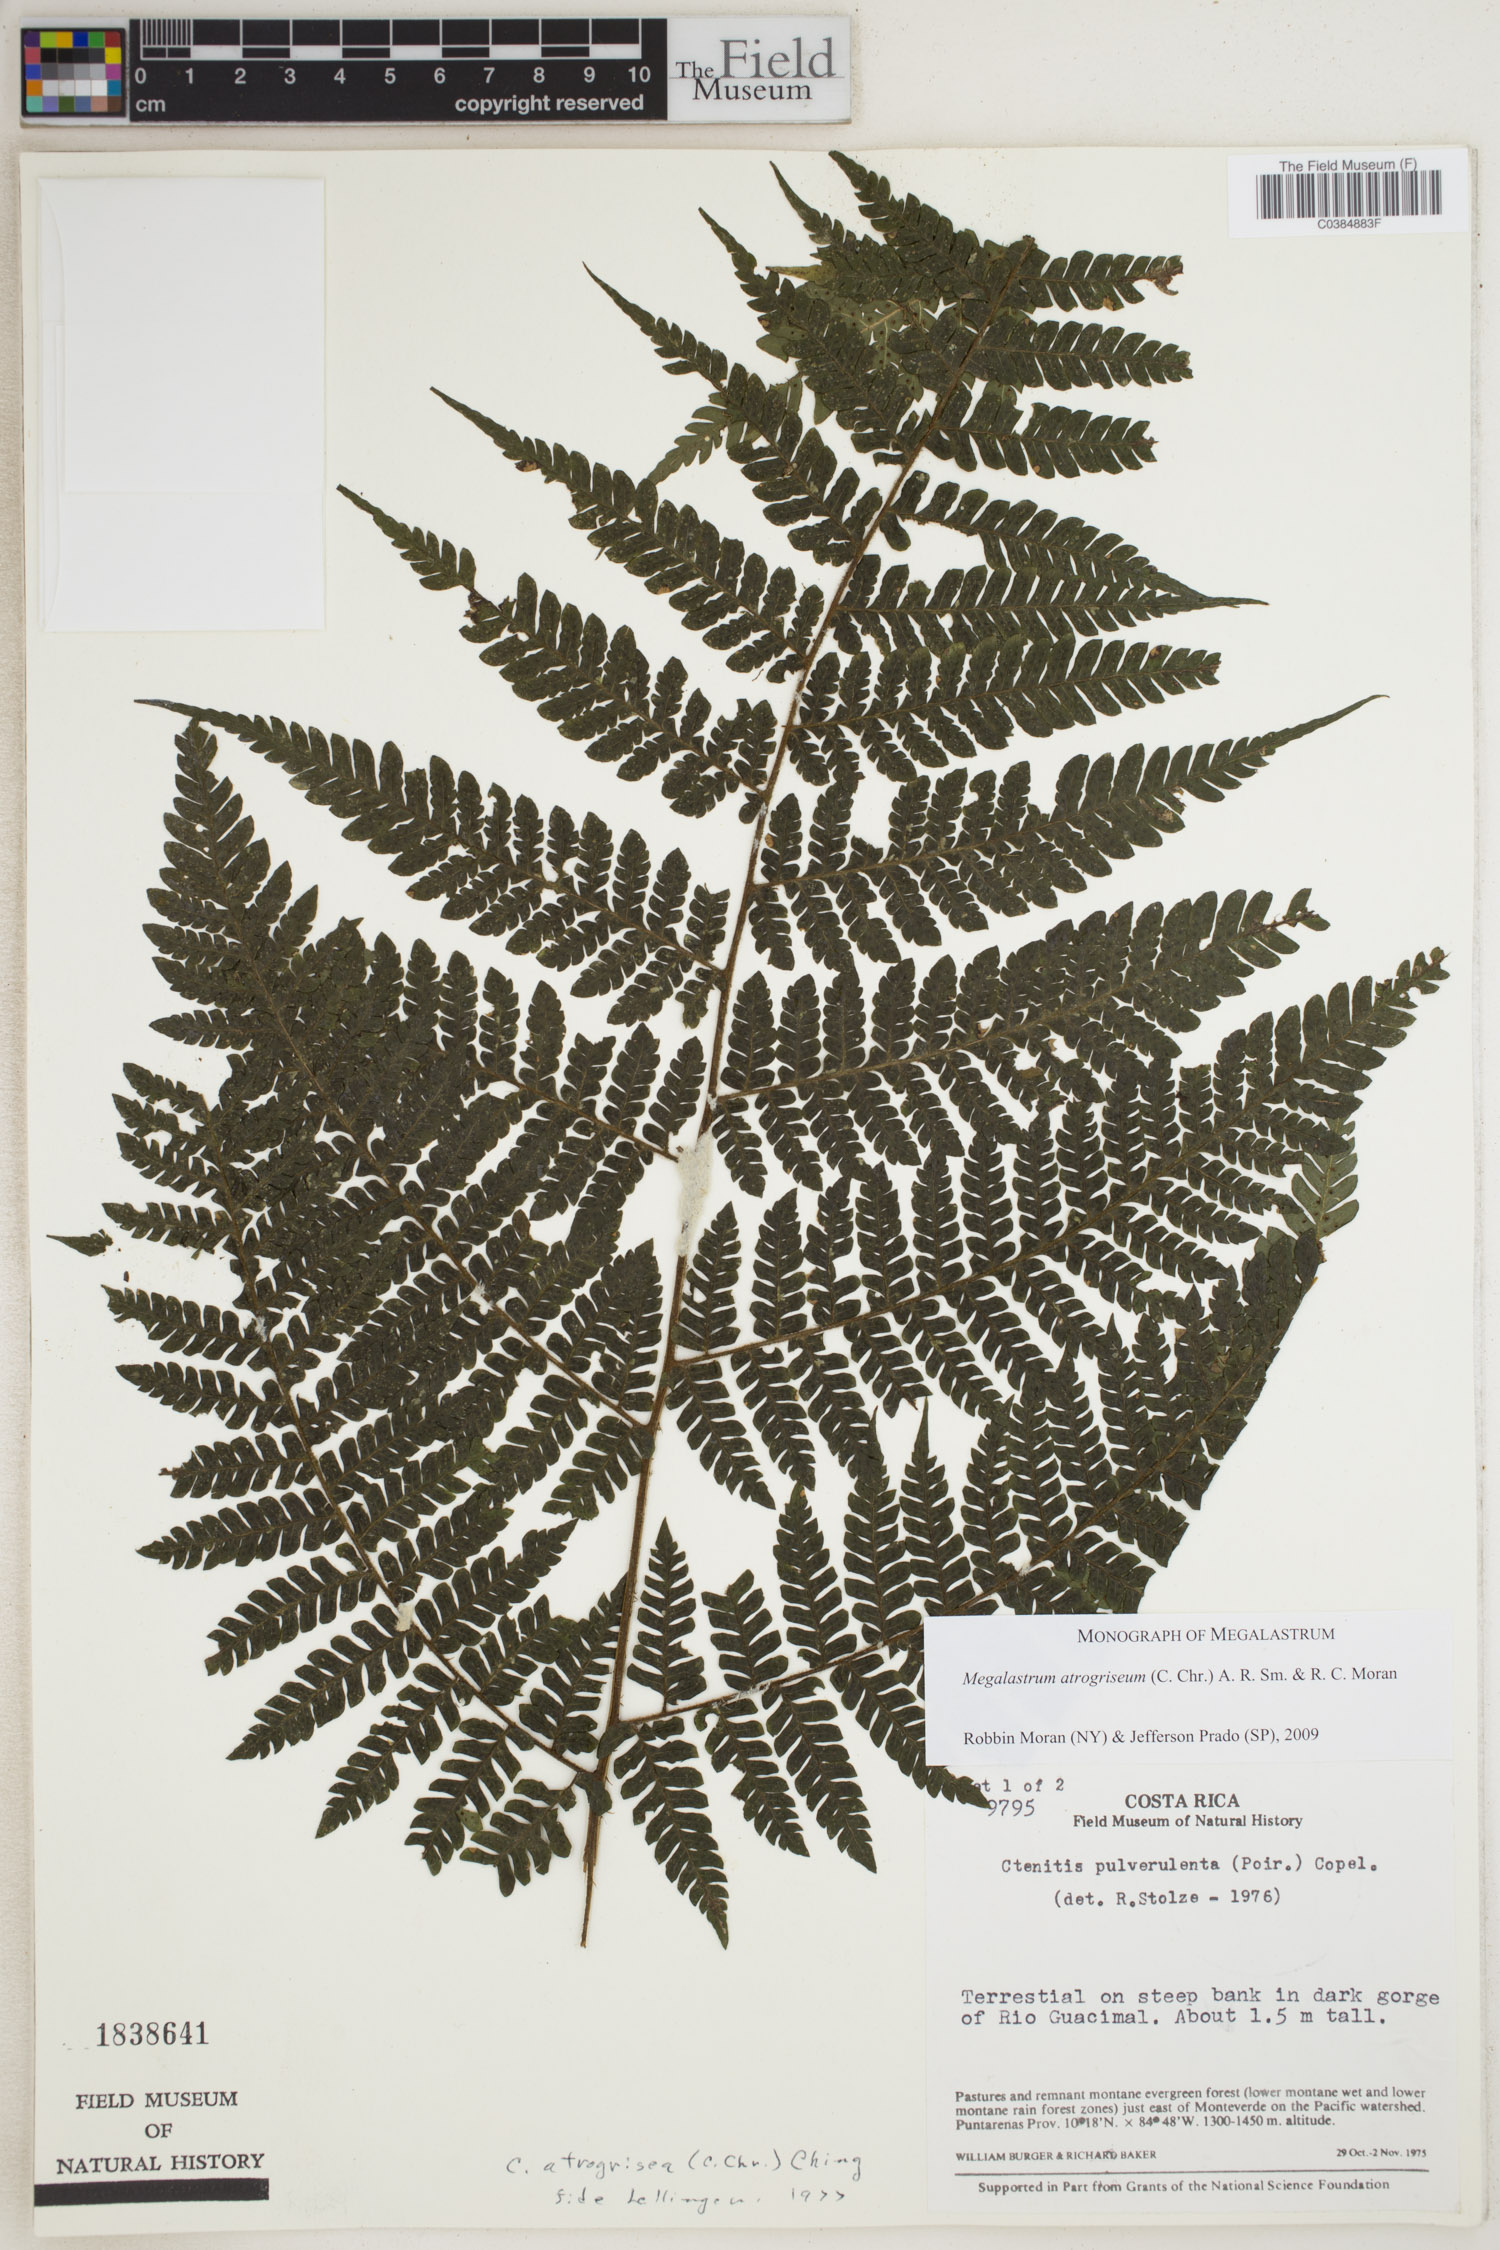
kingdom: Plantae
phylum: Tracheophyta
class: Polypodiopsida
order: Polypodiales
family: Dryopteridaceae
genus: Megalastrum
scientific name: Megalastrum atrogriseum
